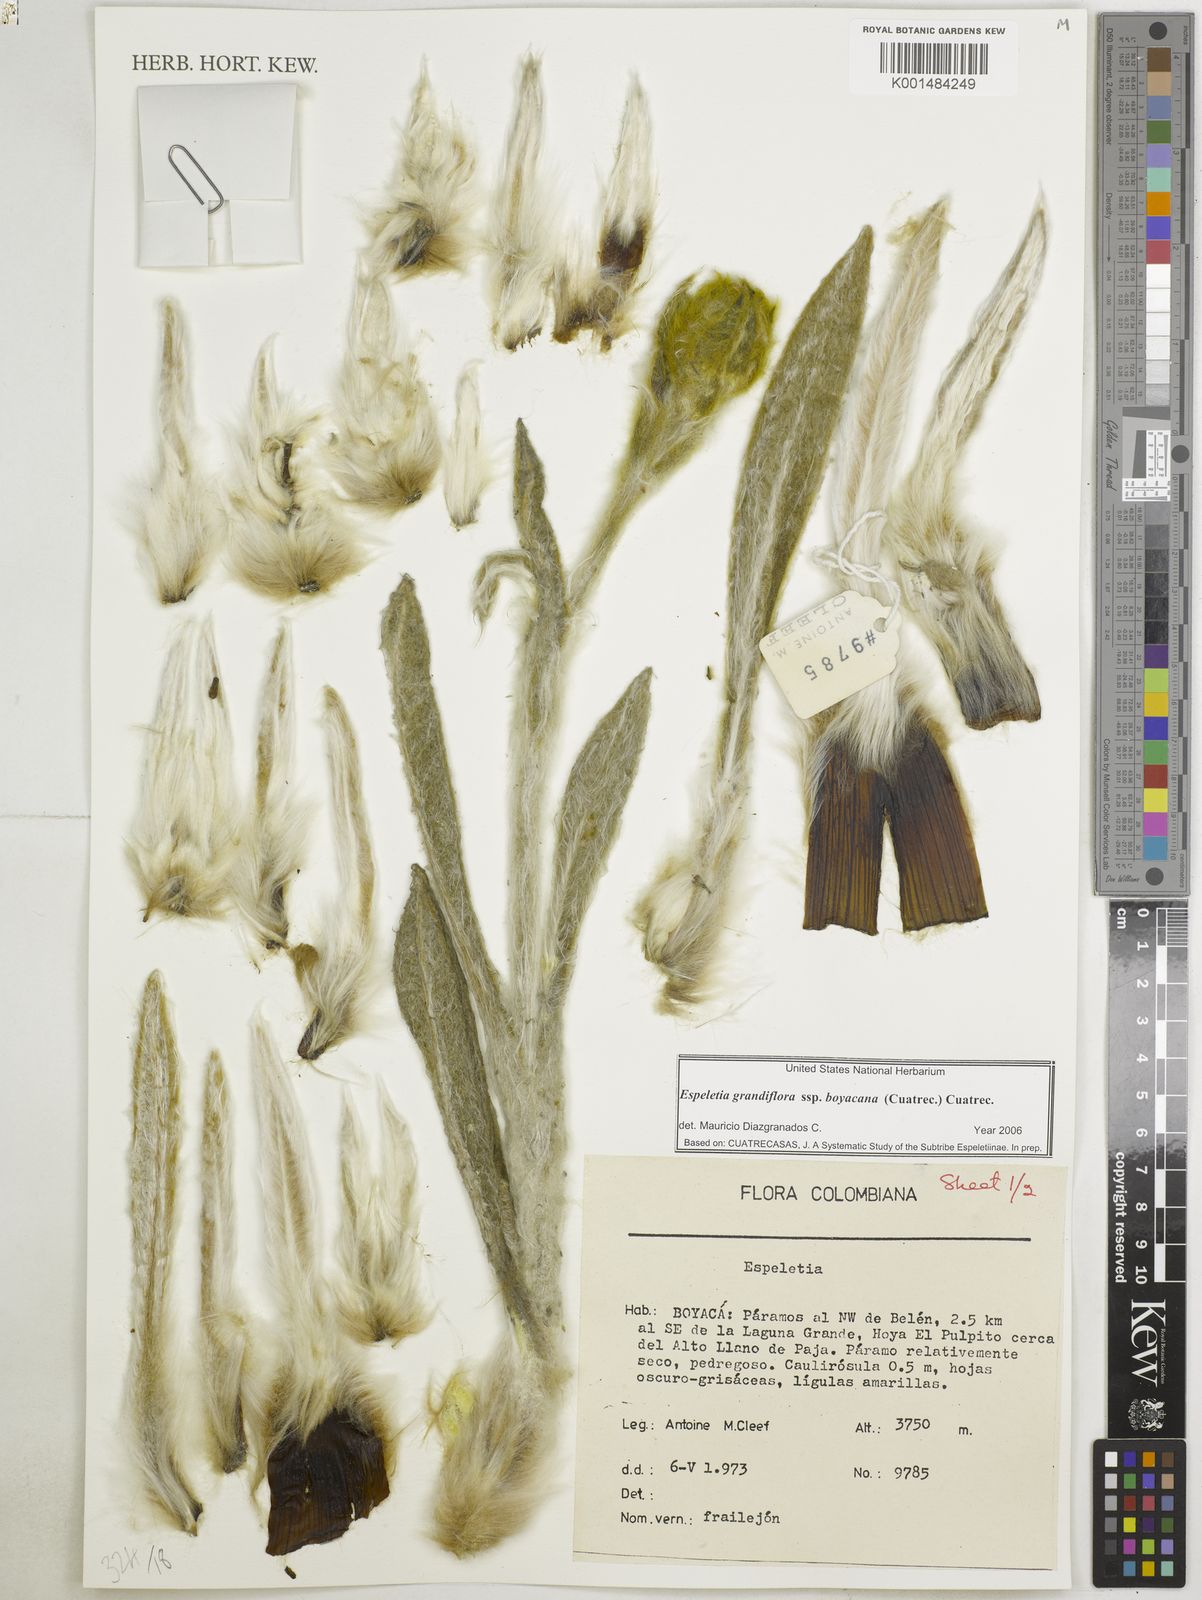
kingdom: Plantae
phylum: Tracheophyta
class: Magnoliopsida
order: Asterales
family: Asteraceae
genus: Espeletia
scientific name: Espeletia grandiflora
